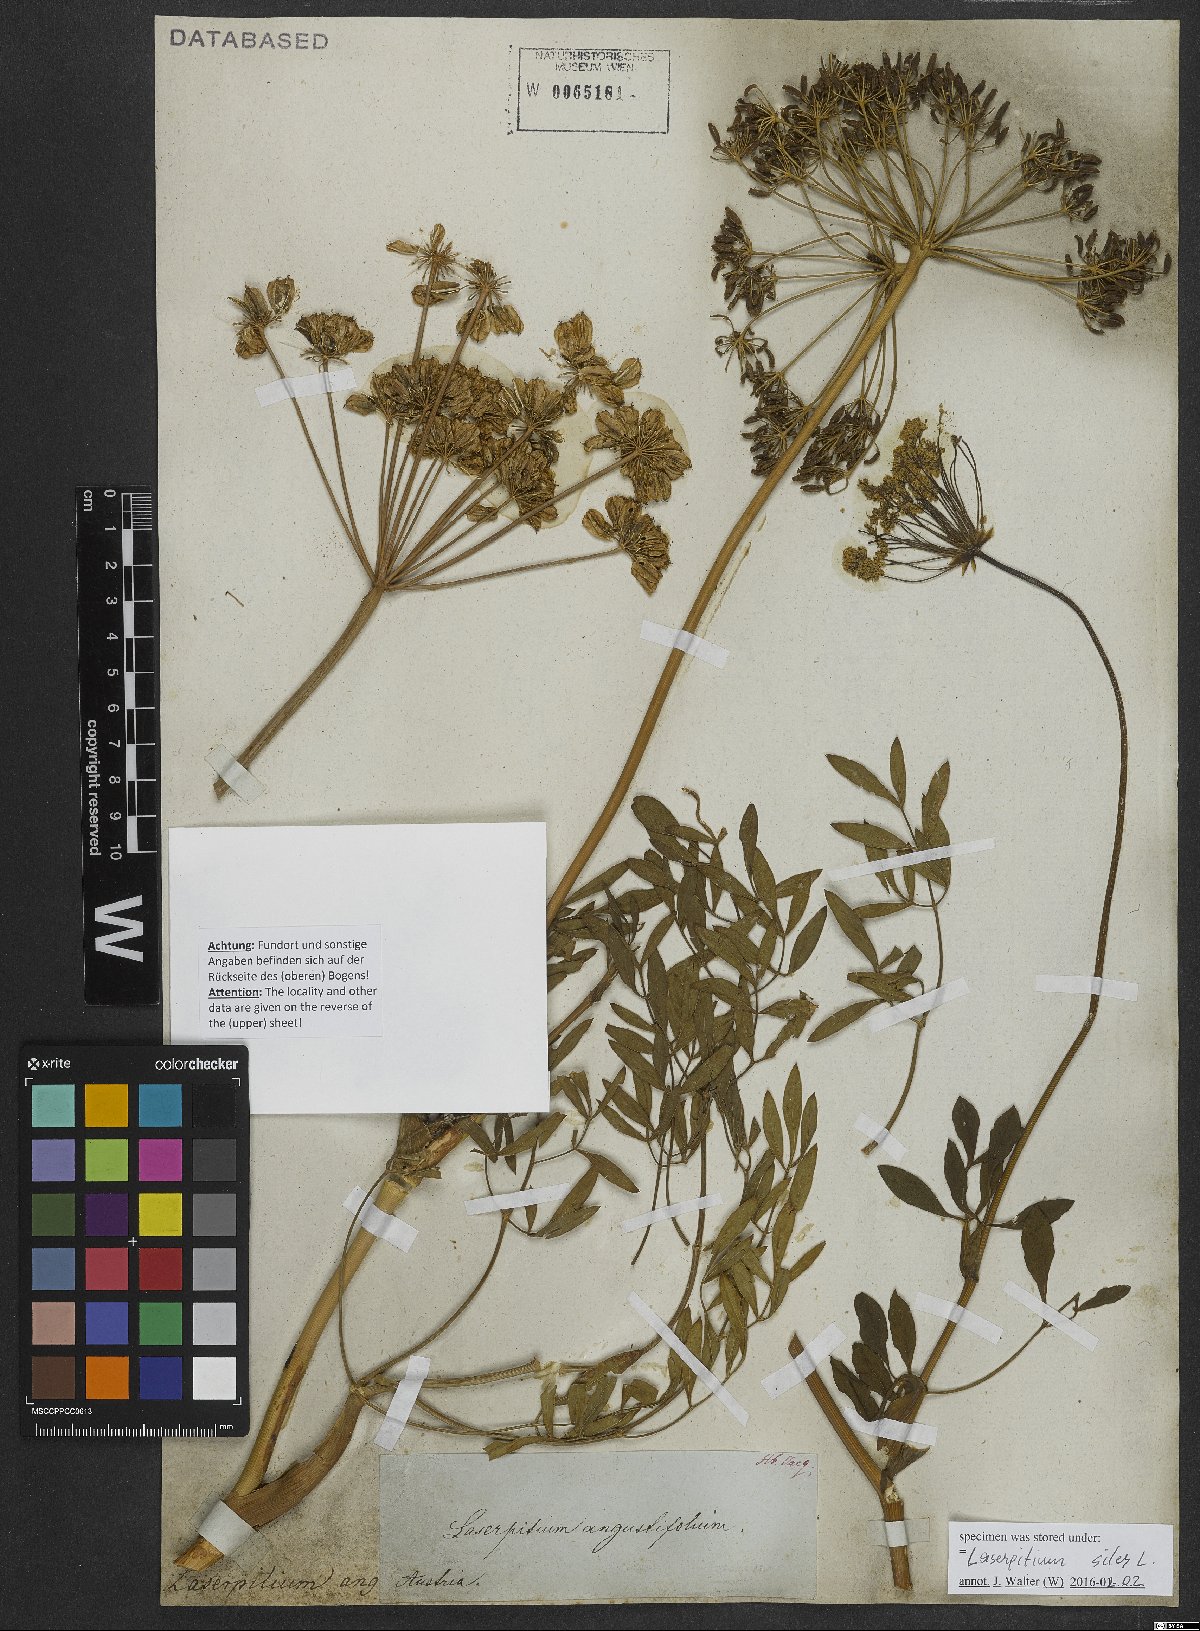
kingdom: Plantae
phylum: Tracheophyta
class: Magnoliopsida
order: Apiales
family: Apiaceae
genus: Siler
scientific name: Siler montanum
